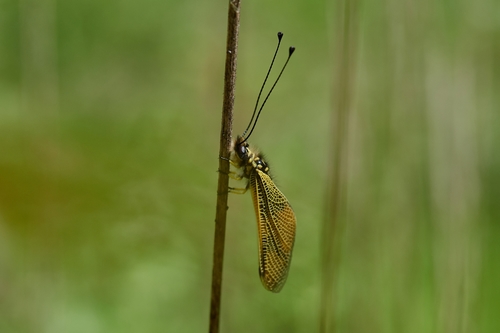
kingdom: Animalia
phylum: Arthropoda
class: Insecta
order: Neuroptera
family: Ascalaphidae
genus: Libelloides
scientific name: Libelloides longicornis
